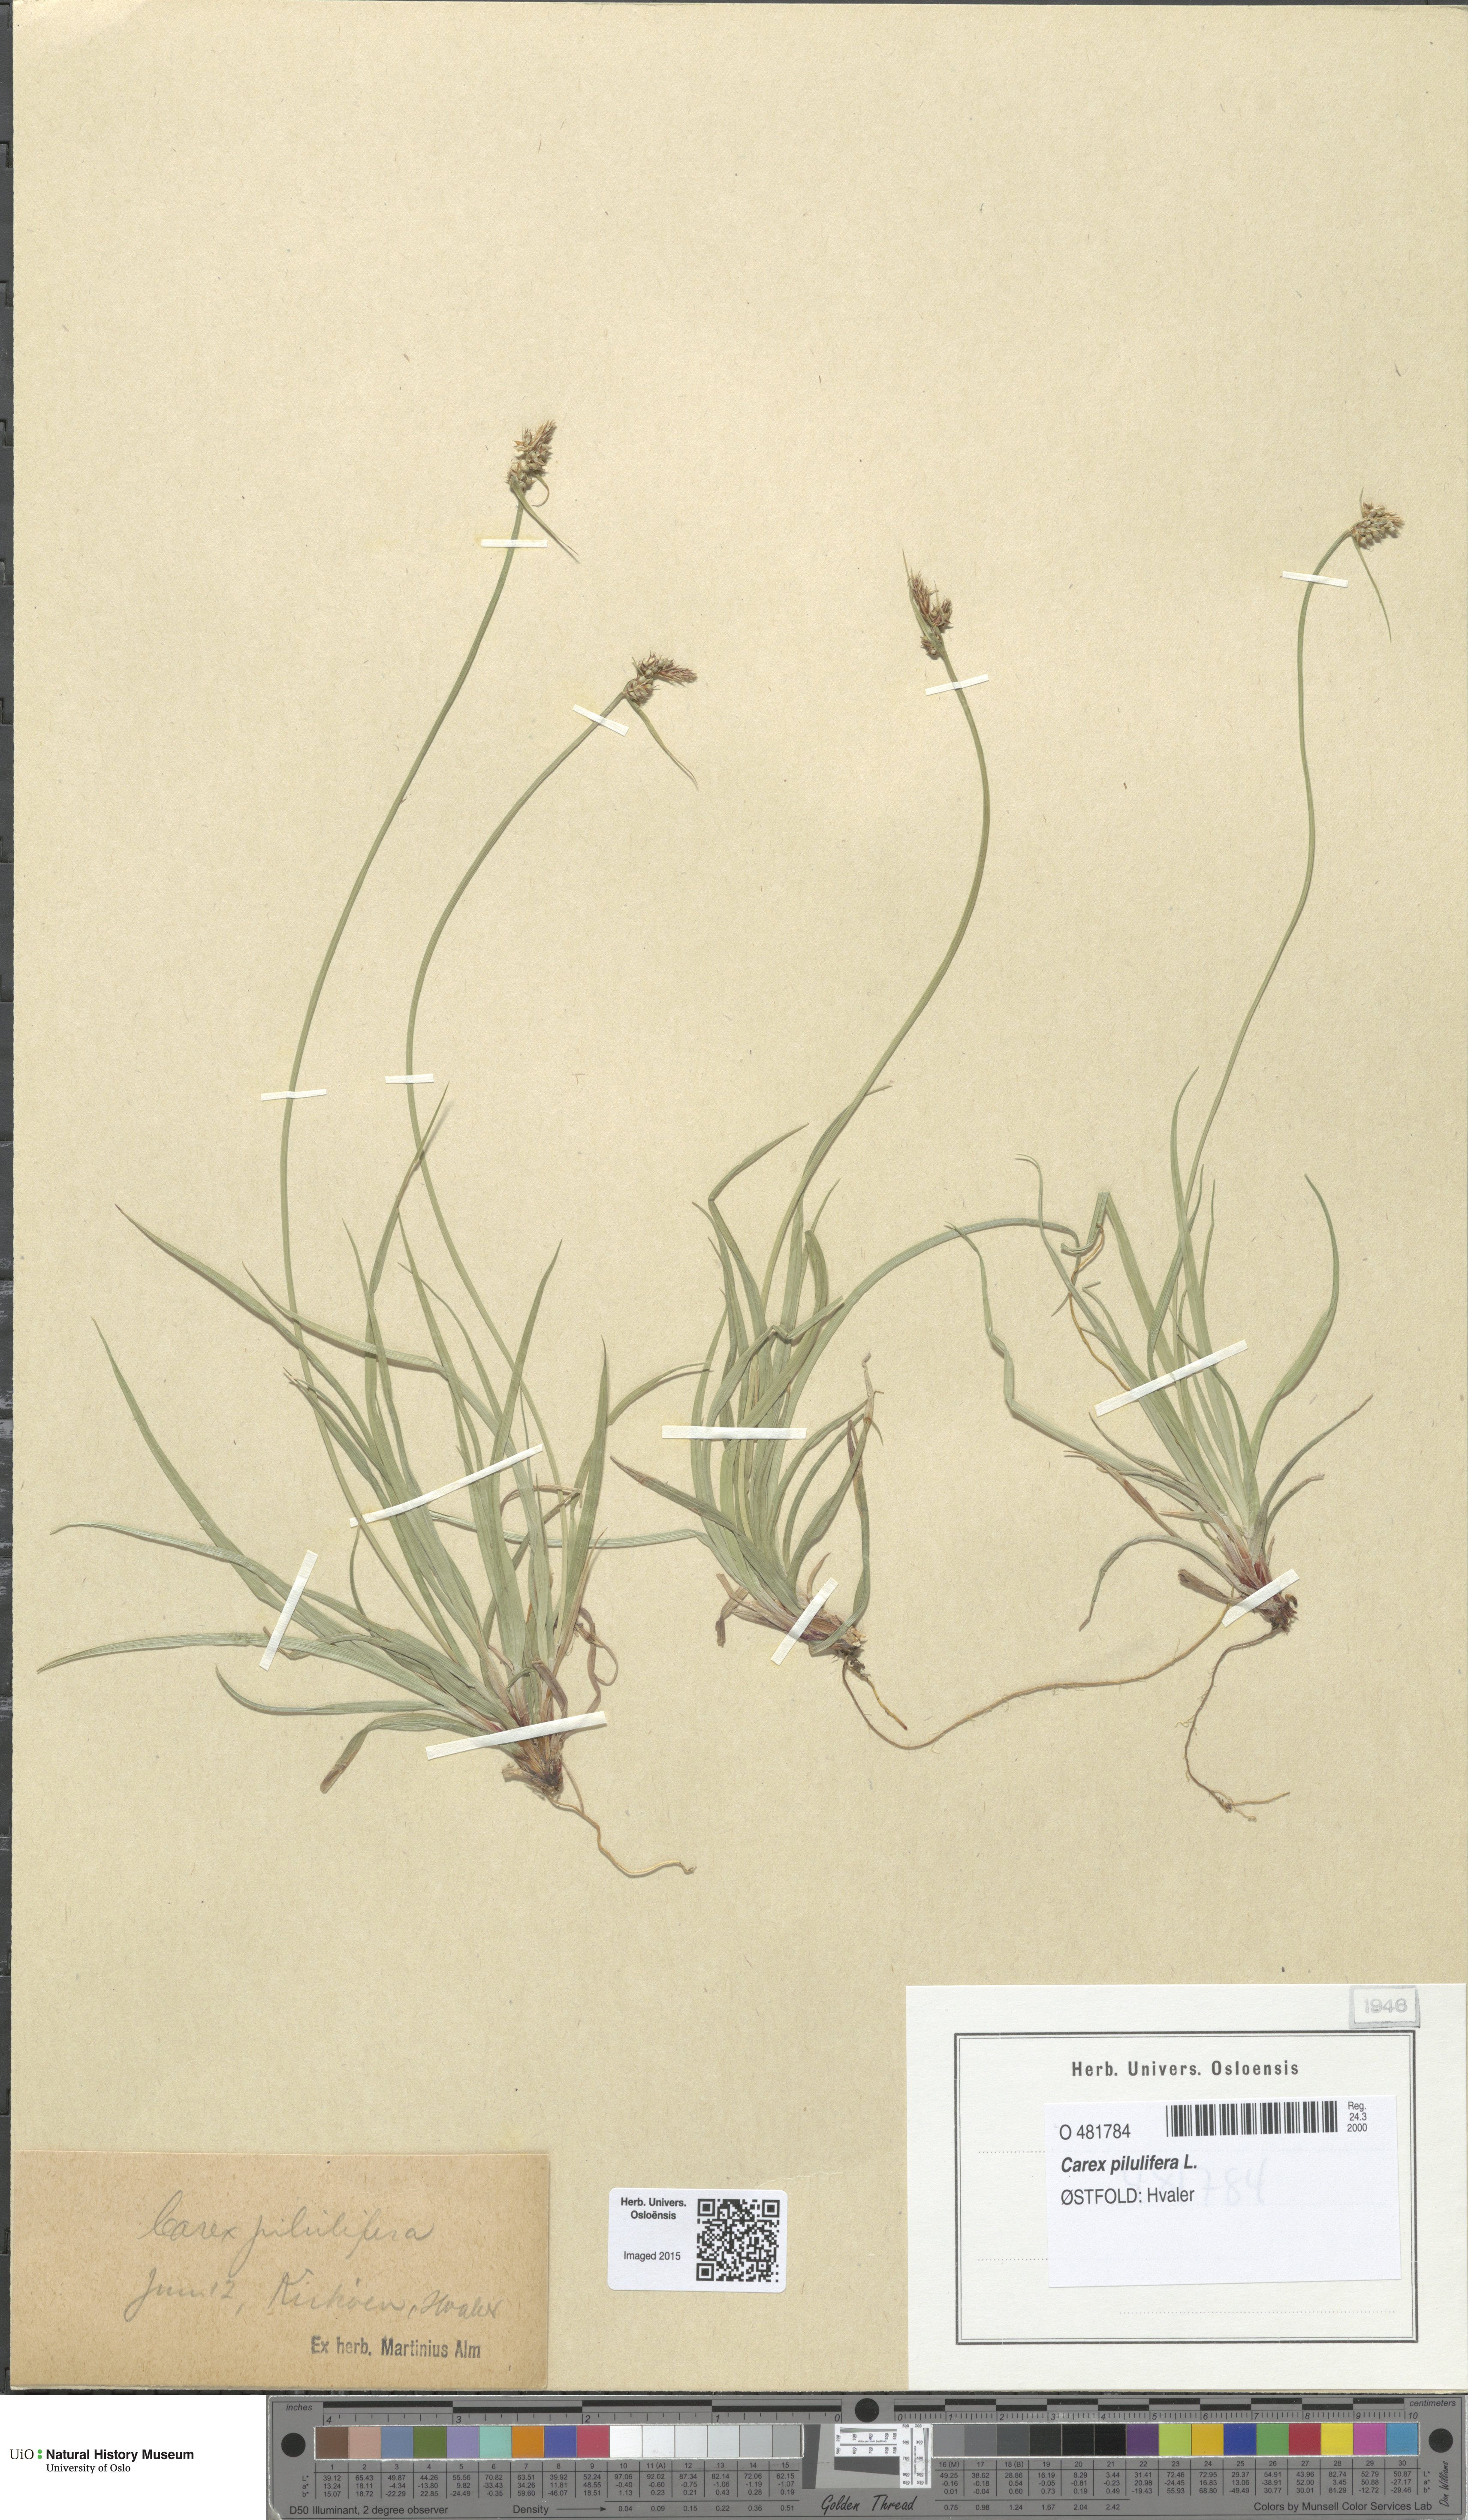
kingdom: Plantae
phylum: Tracheophyta
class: Liliopsida
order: Poales
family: Cyperaceae
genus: Carex
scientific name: Carex pilulifera
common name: Pill sedge
